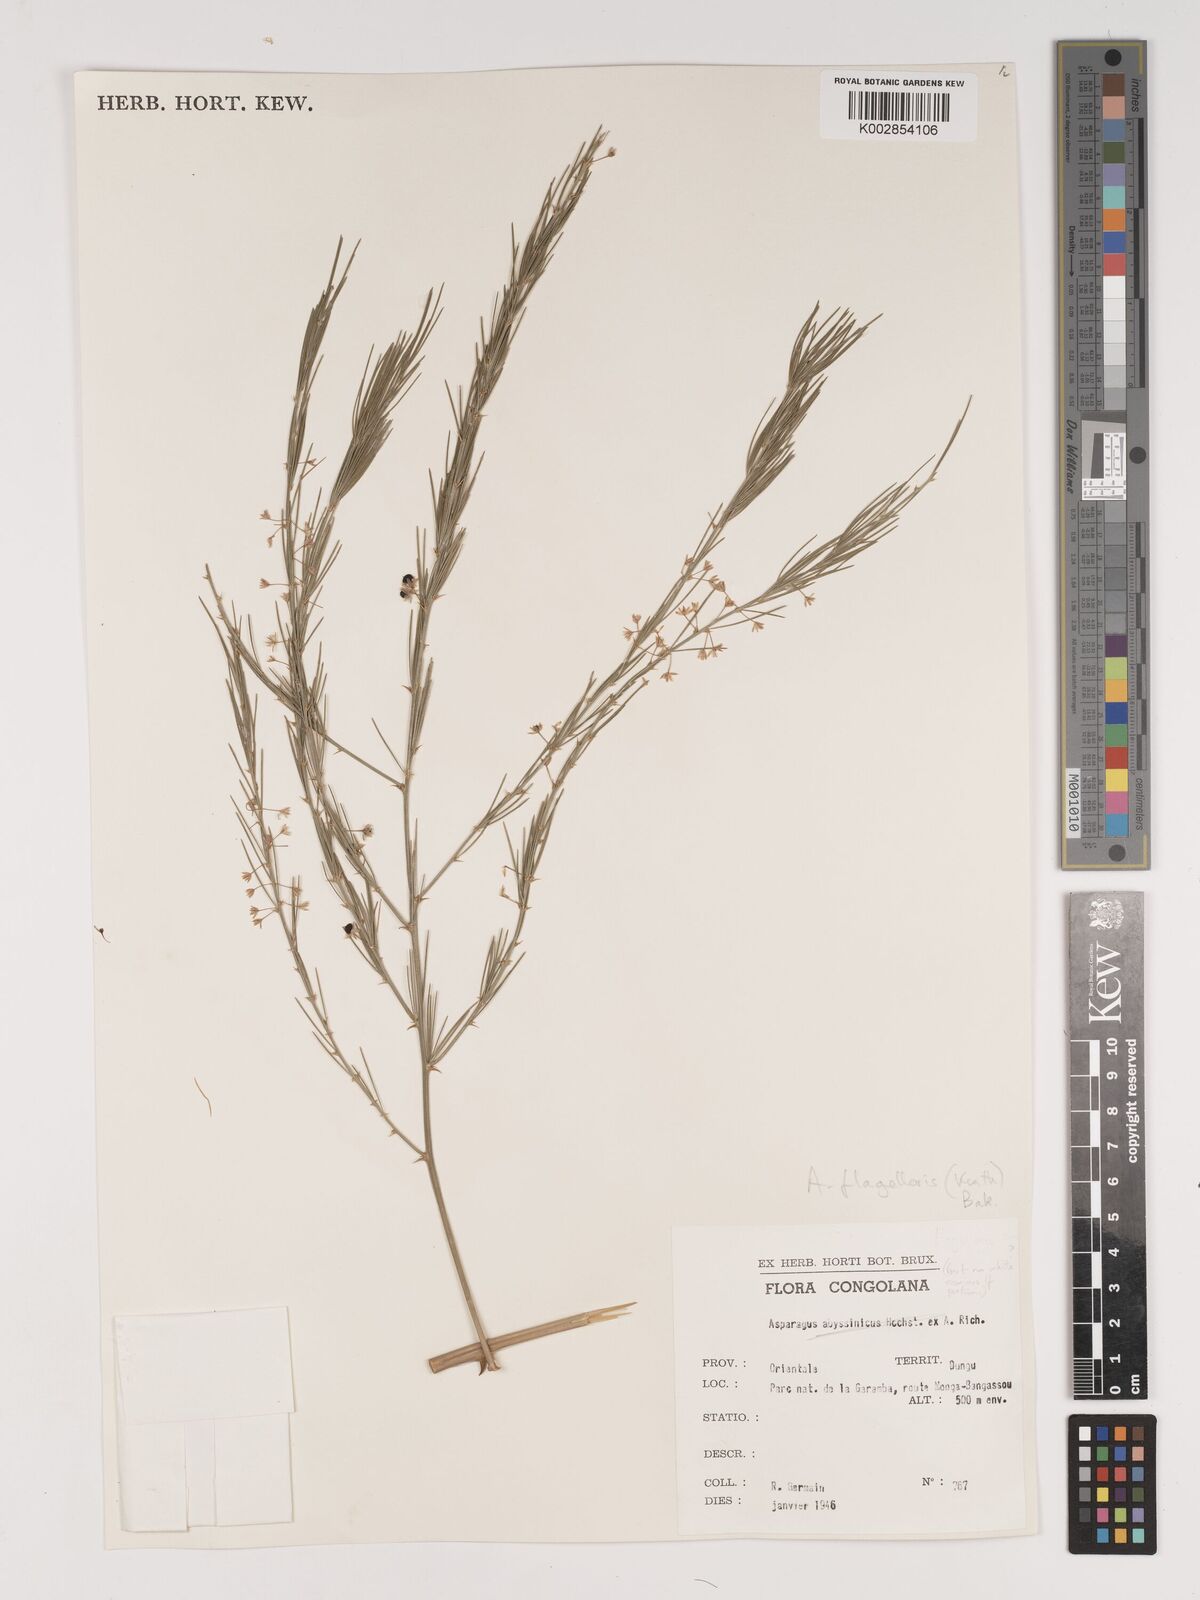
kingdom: Plantae
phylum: Tracheophyta
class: Liliopsida
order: Asparagales
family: Asparagaceae
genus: Asparagus
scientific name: Asparagus flagellaris
